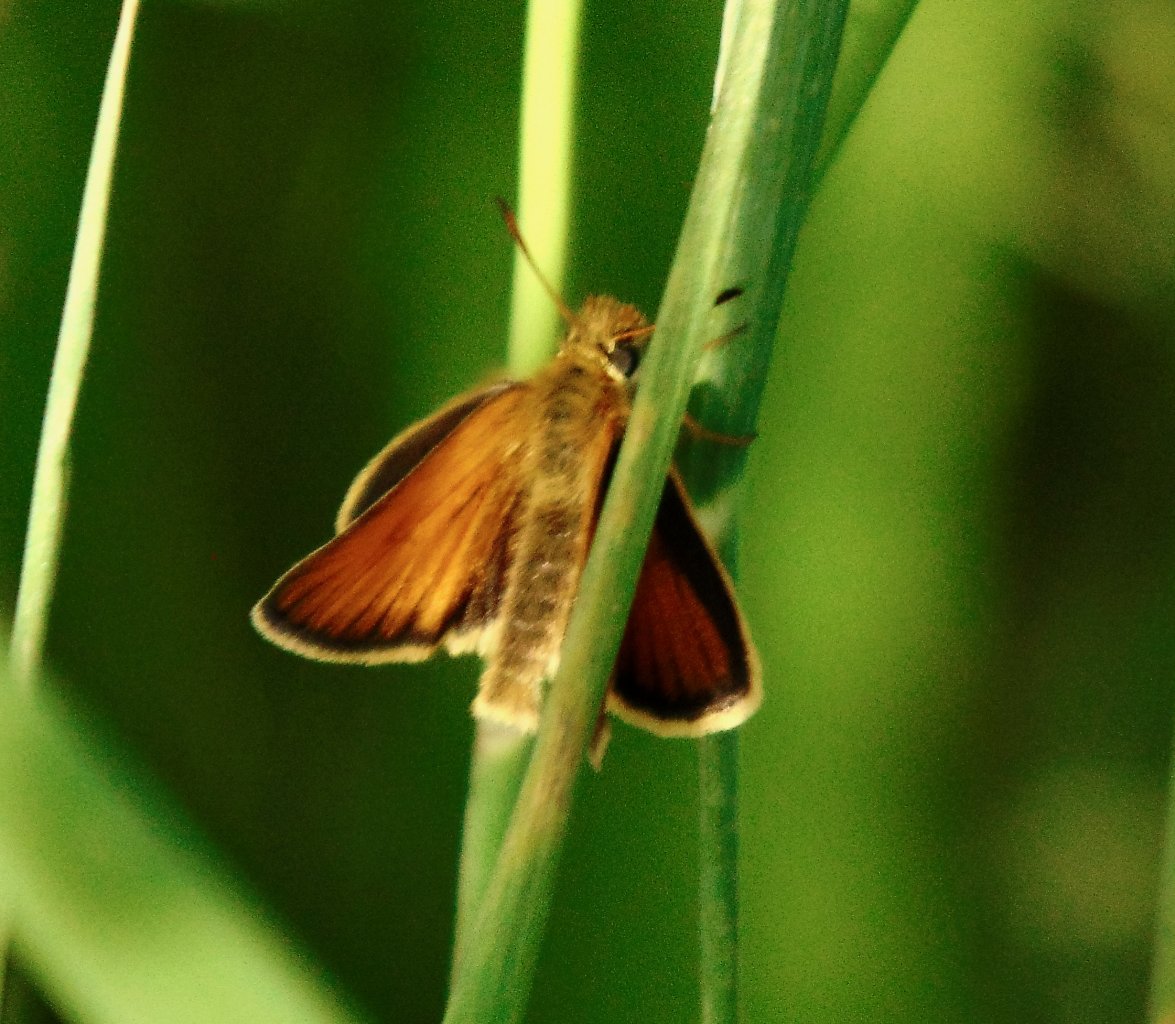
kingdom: Animalia
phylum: Arthropoda
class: Insecta
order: Lepidoptera
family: Hesperiidae
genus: Thymelicus
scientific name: Thymelicus lineola
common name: European Skipper
